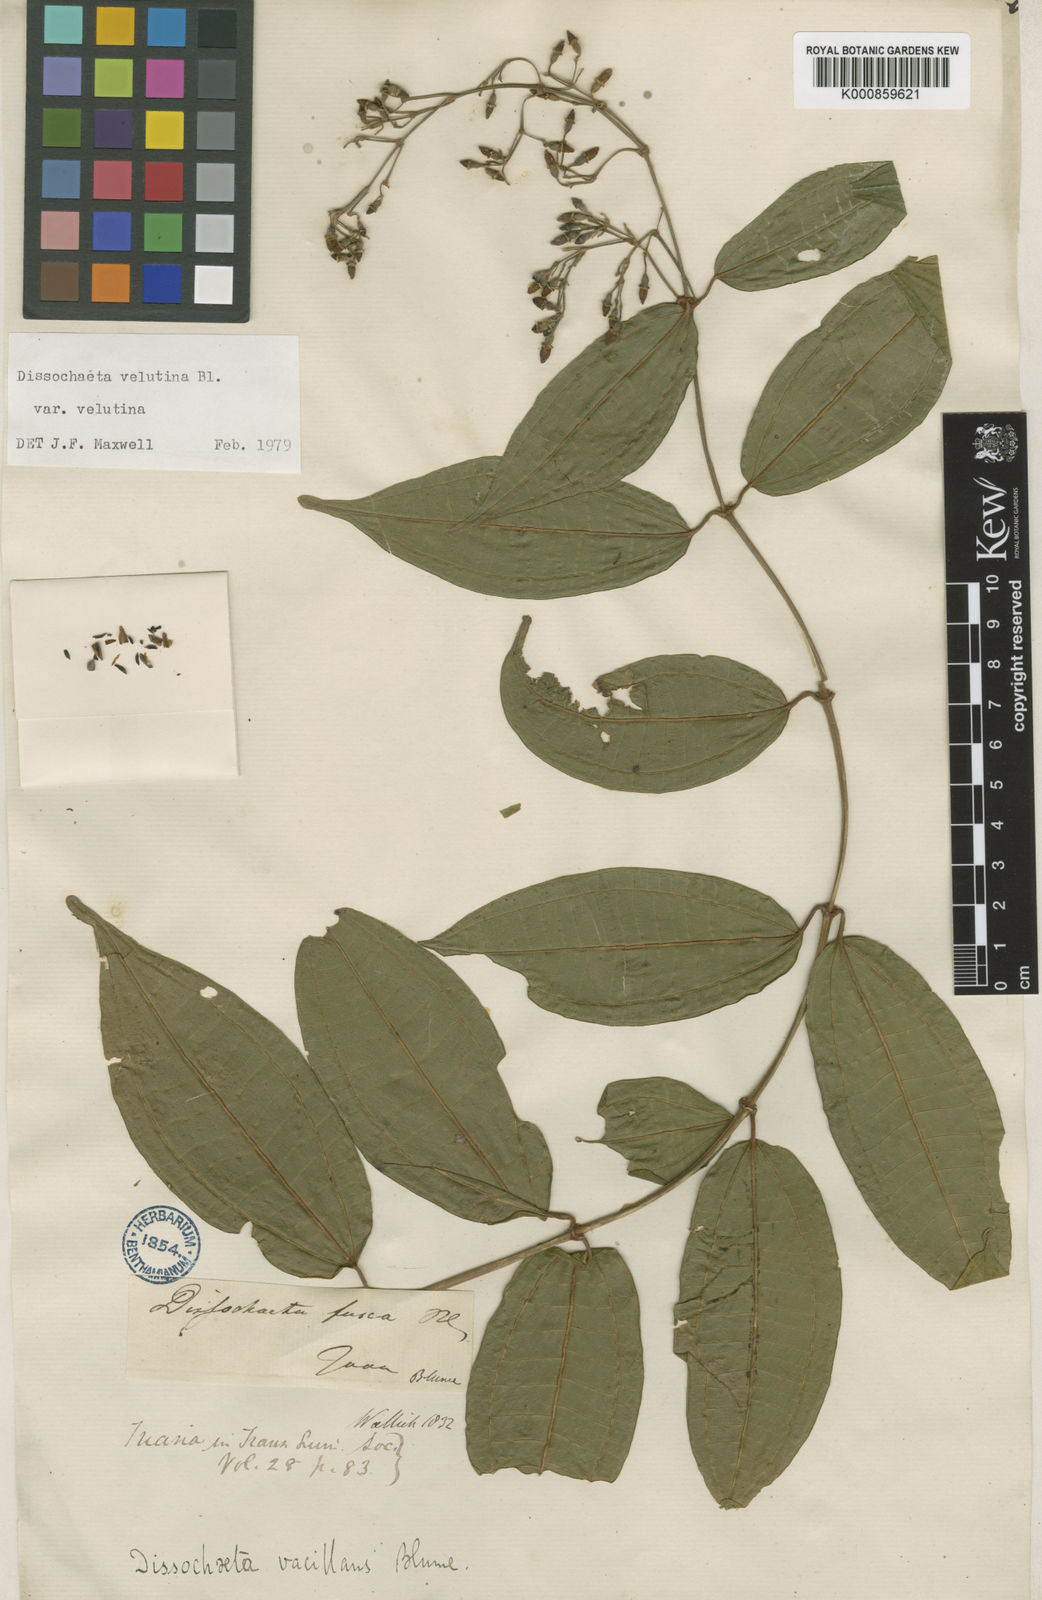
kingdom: Plantae
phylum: Tracheophyta
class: Magnoliopsida
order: Myrtales
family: Melastomataceae
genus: Dissochaeta
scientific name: Dissochaeta vacillans
